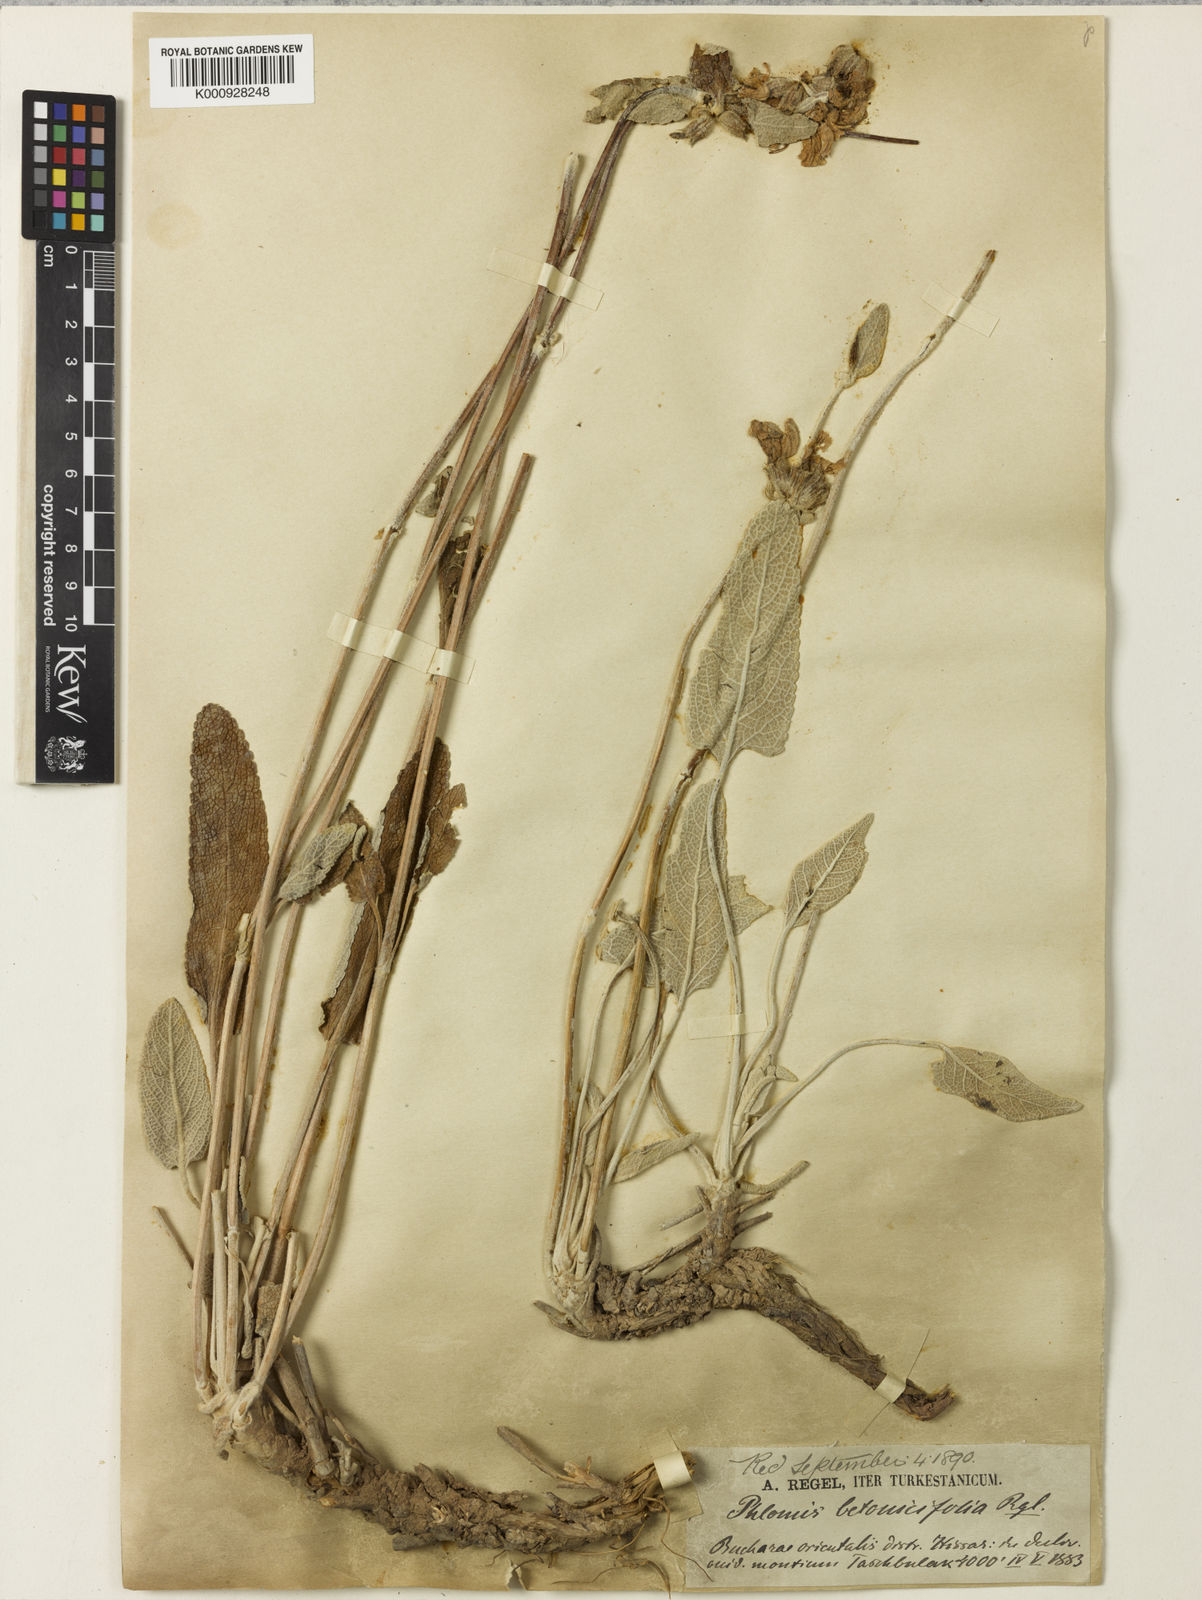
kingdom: Plantae
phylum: Tracheophyta
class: Magnoliopsida
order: Lamiales
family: Lamiaceae
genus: Phlomoides
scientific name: Phlomoides betonicoides
